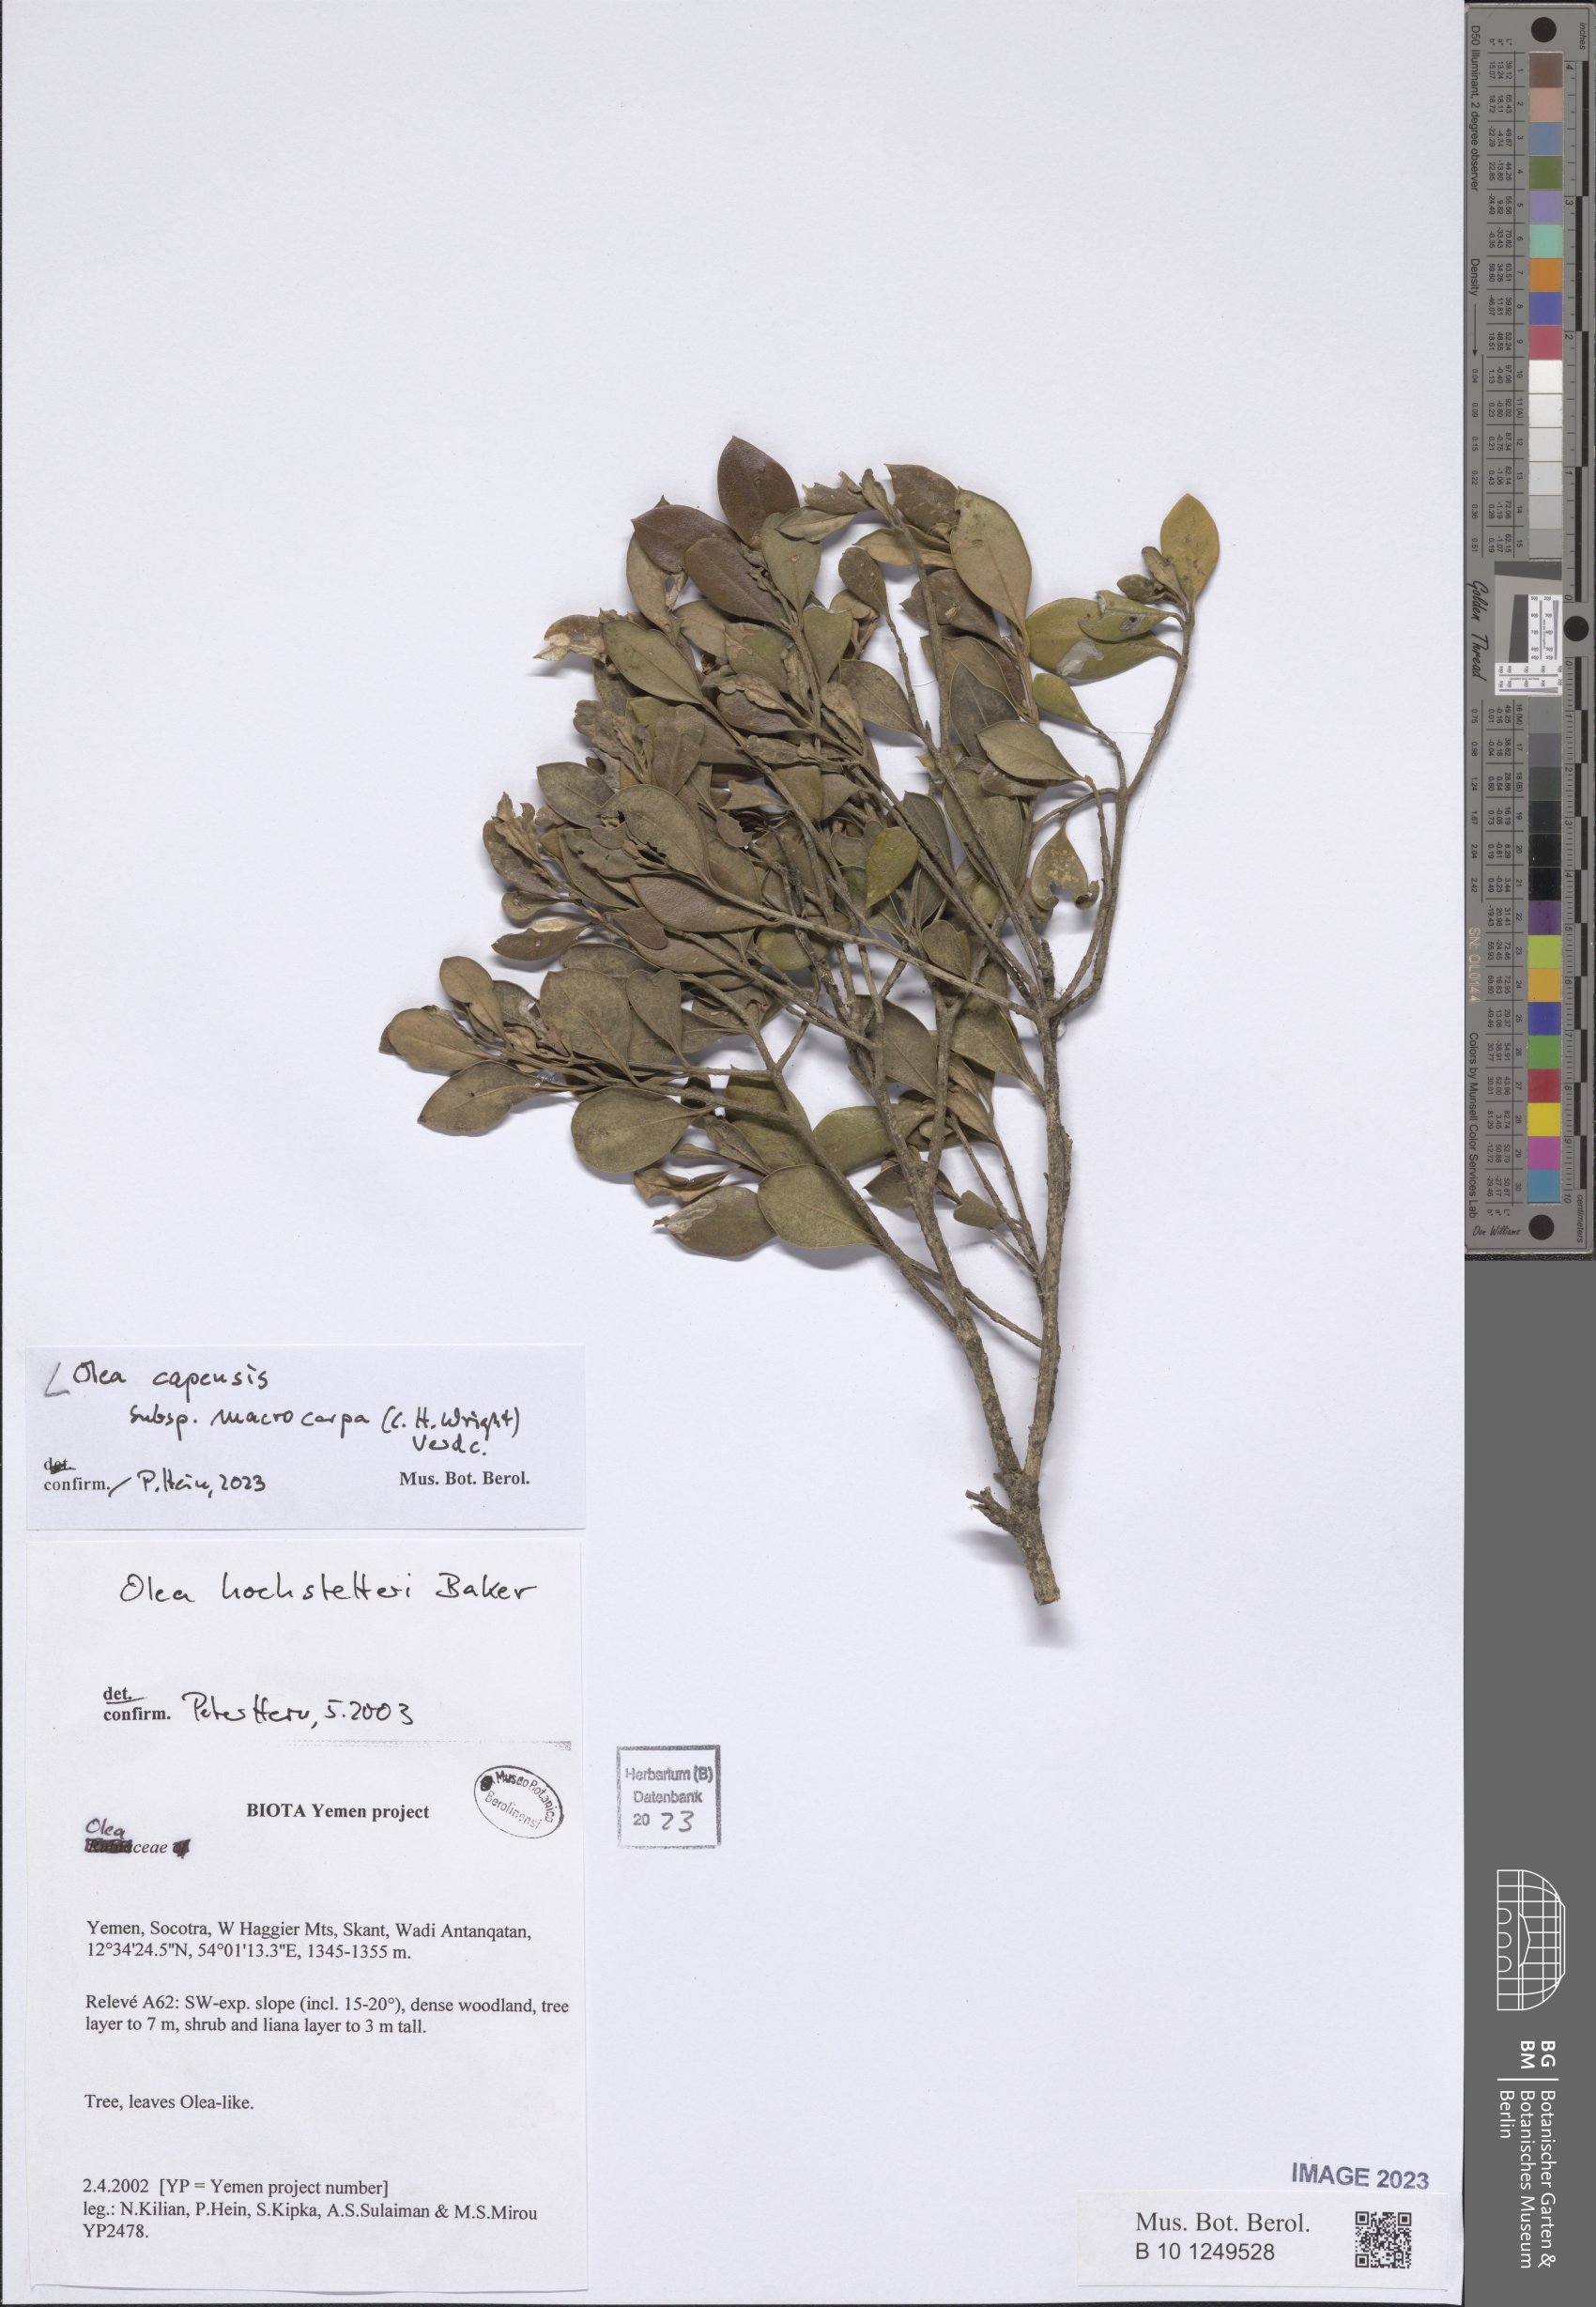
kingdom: Plantae
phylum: Tracheophyta
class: Magnoliopsida
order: Lamiales
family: Oleaceae
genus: Olea
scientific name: Olea capensis
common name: Black ironwood
